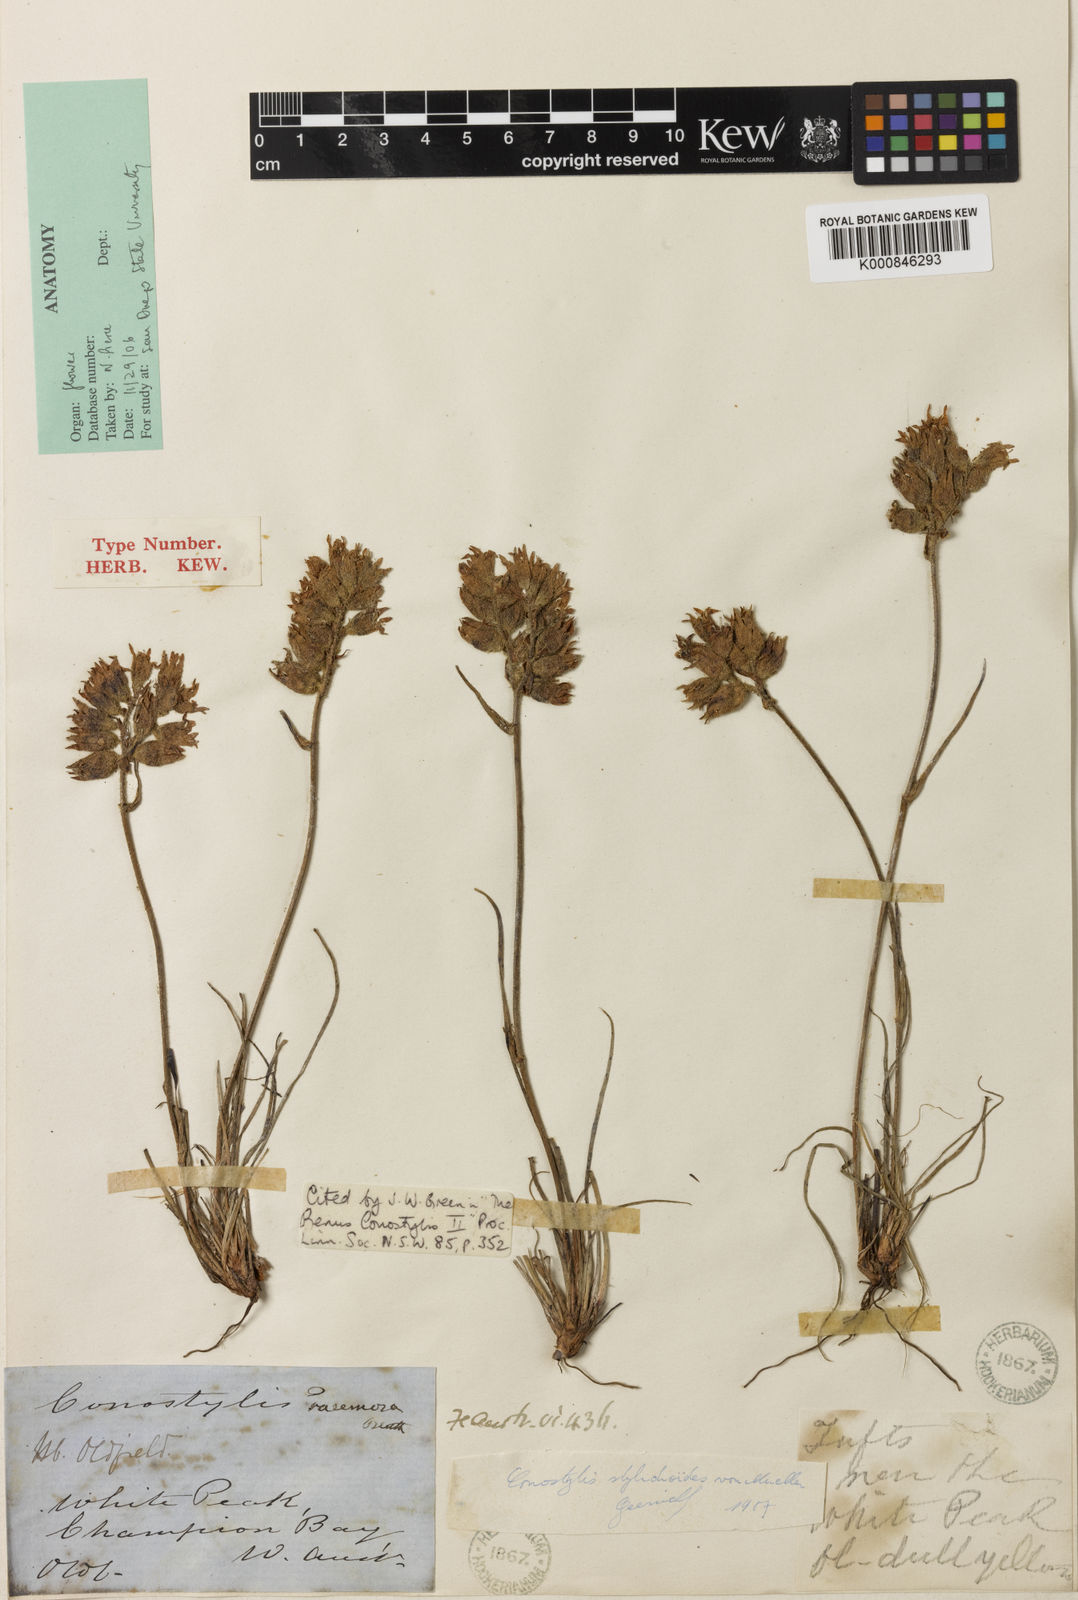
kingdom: Plantae
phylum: Tracheophyta
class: Liliopsida
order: Commelinales
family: Haemodoraceae
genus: Conostylis
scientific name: Conostylis stylidioides
